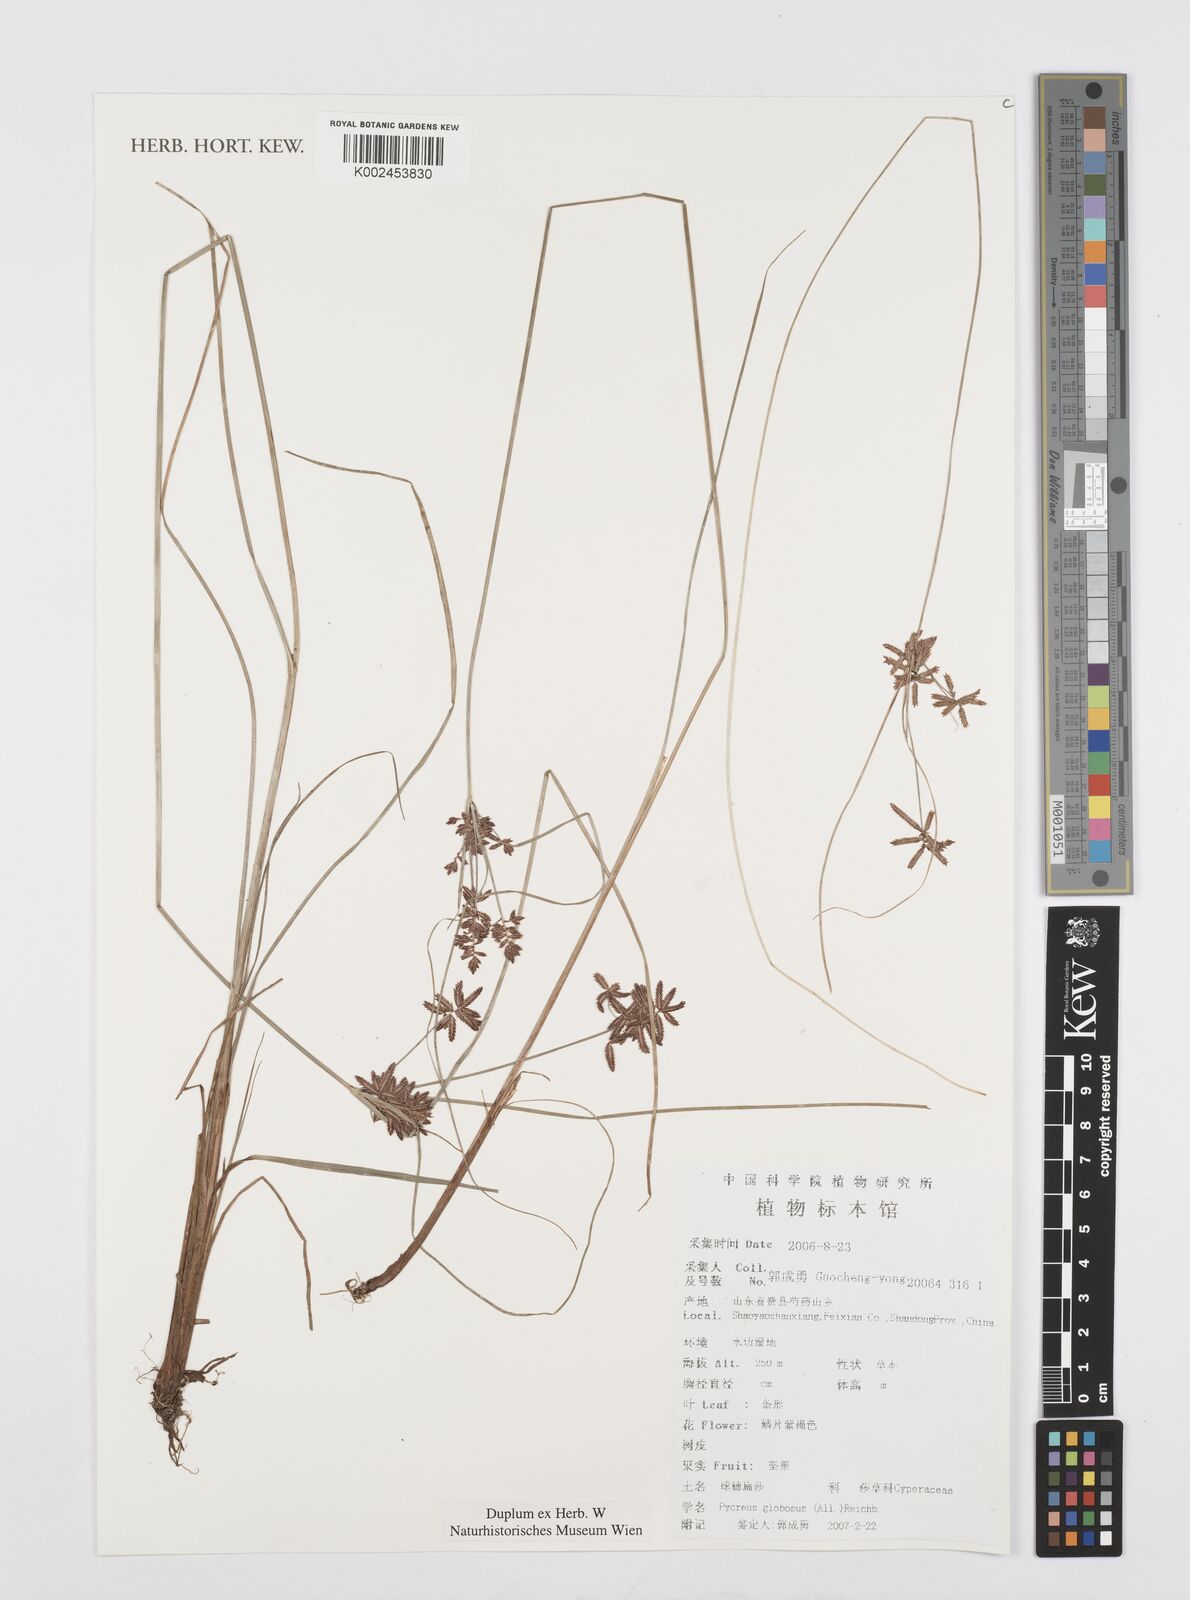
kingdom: Plantae
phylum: Tracheophyta
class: Liliopsida
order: Poales
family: Cyperaceae
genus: Cyperus
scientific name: Cyperus flavidus
